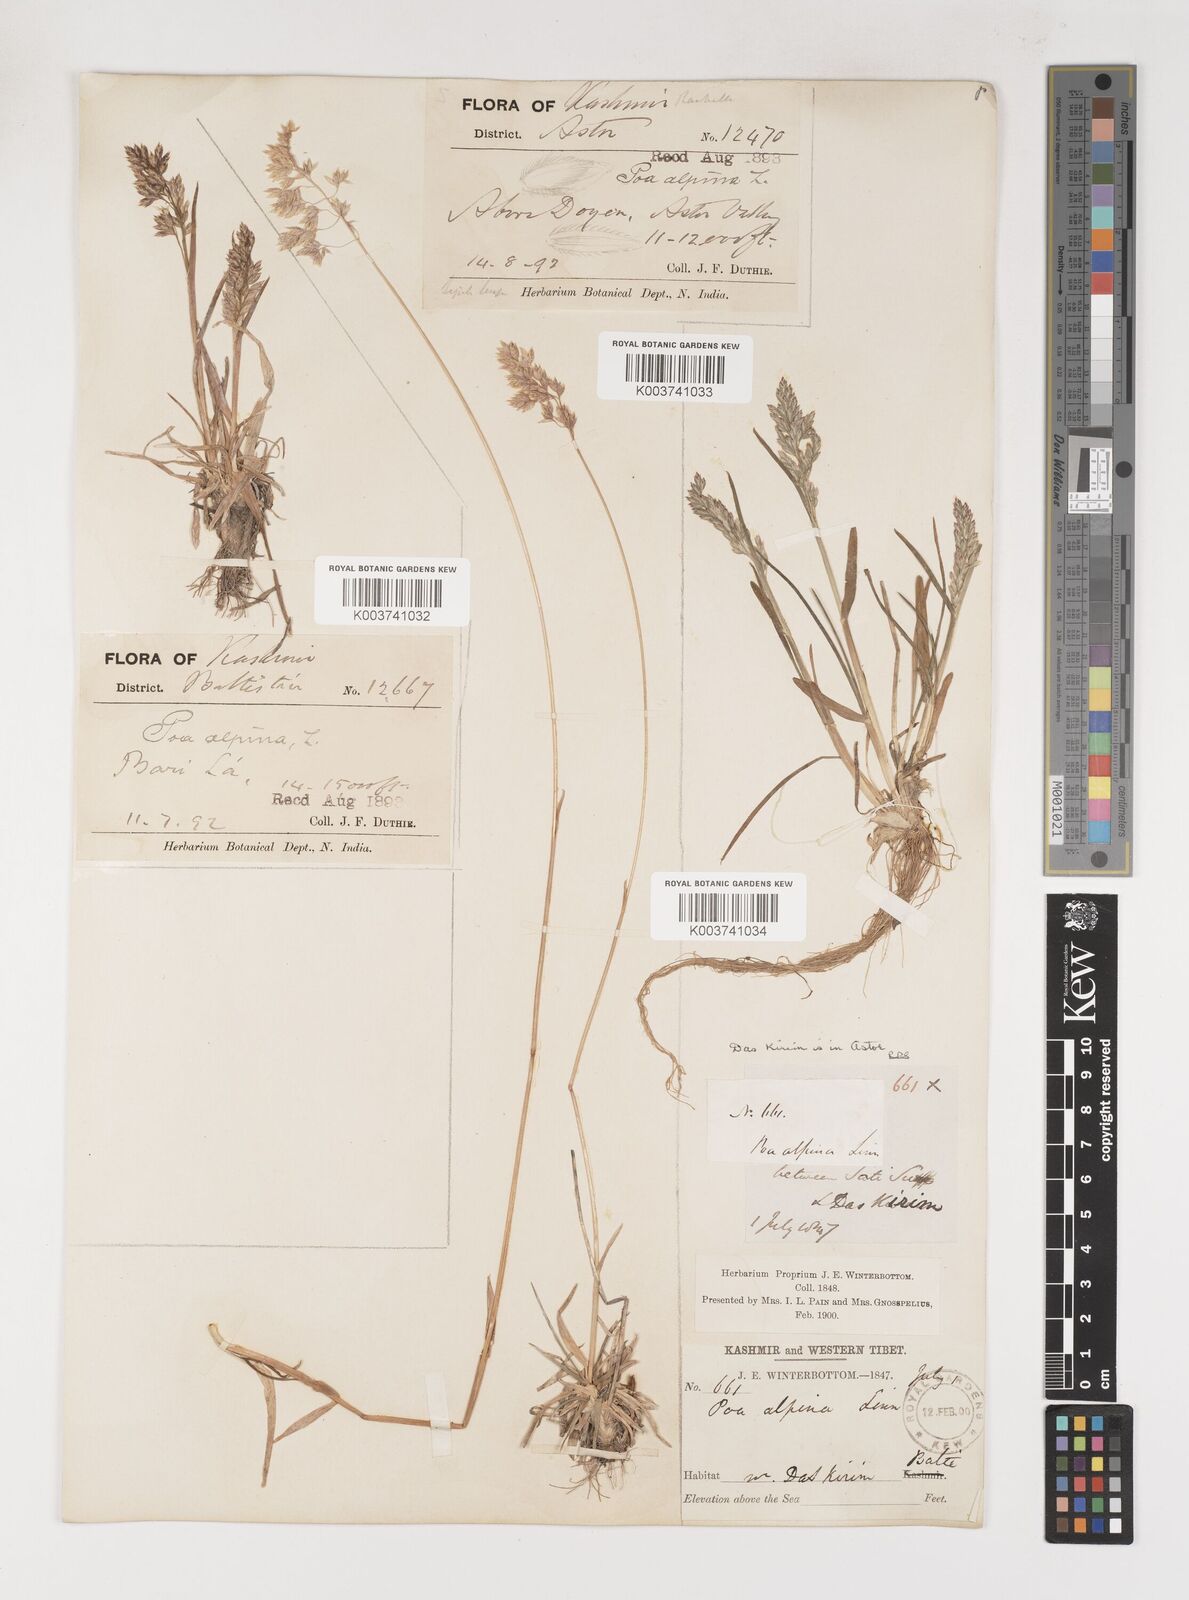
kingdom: Plantae
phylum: Tracheophyta
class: Liliopsida
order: Poales
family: Poaceae
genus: Poa
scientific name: Poa alpina
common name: Alpine bluegrass
